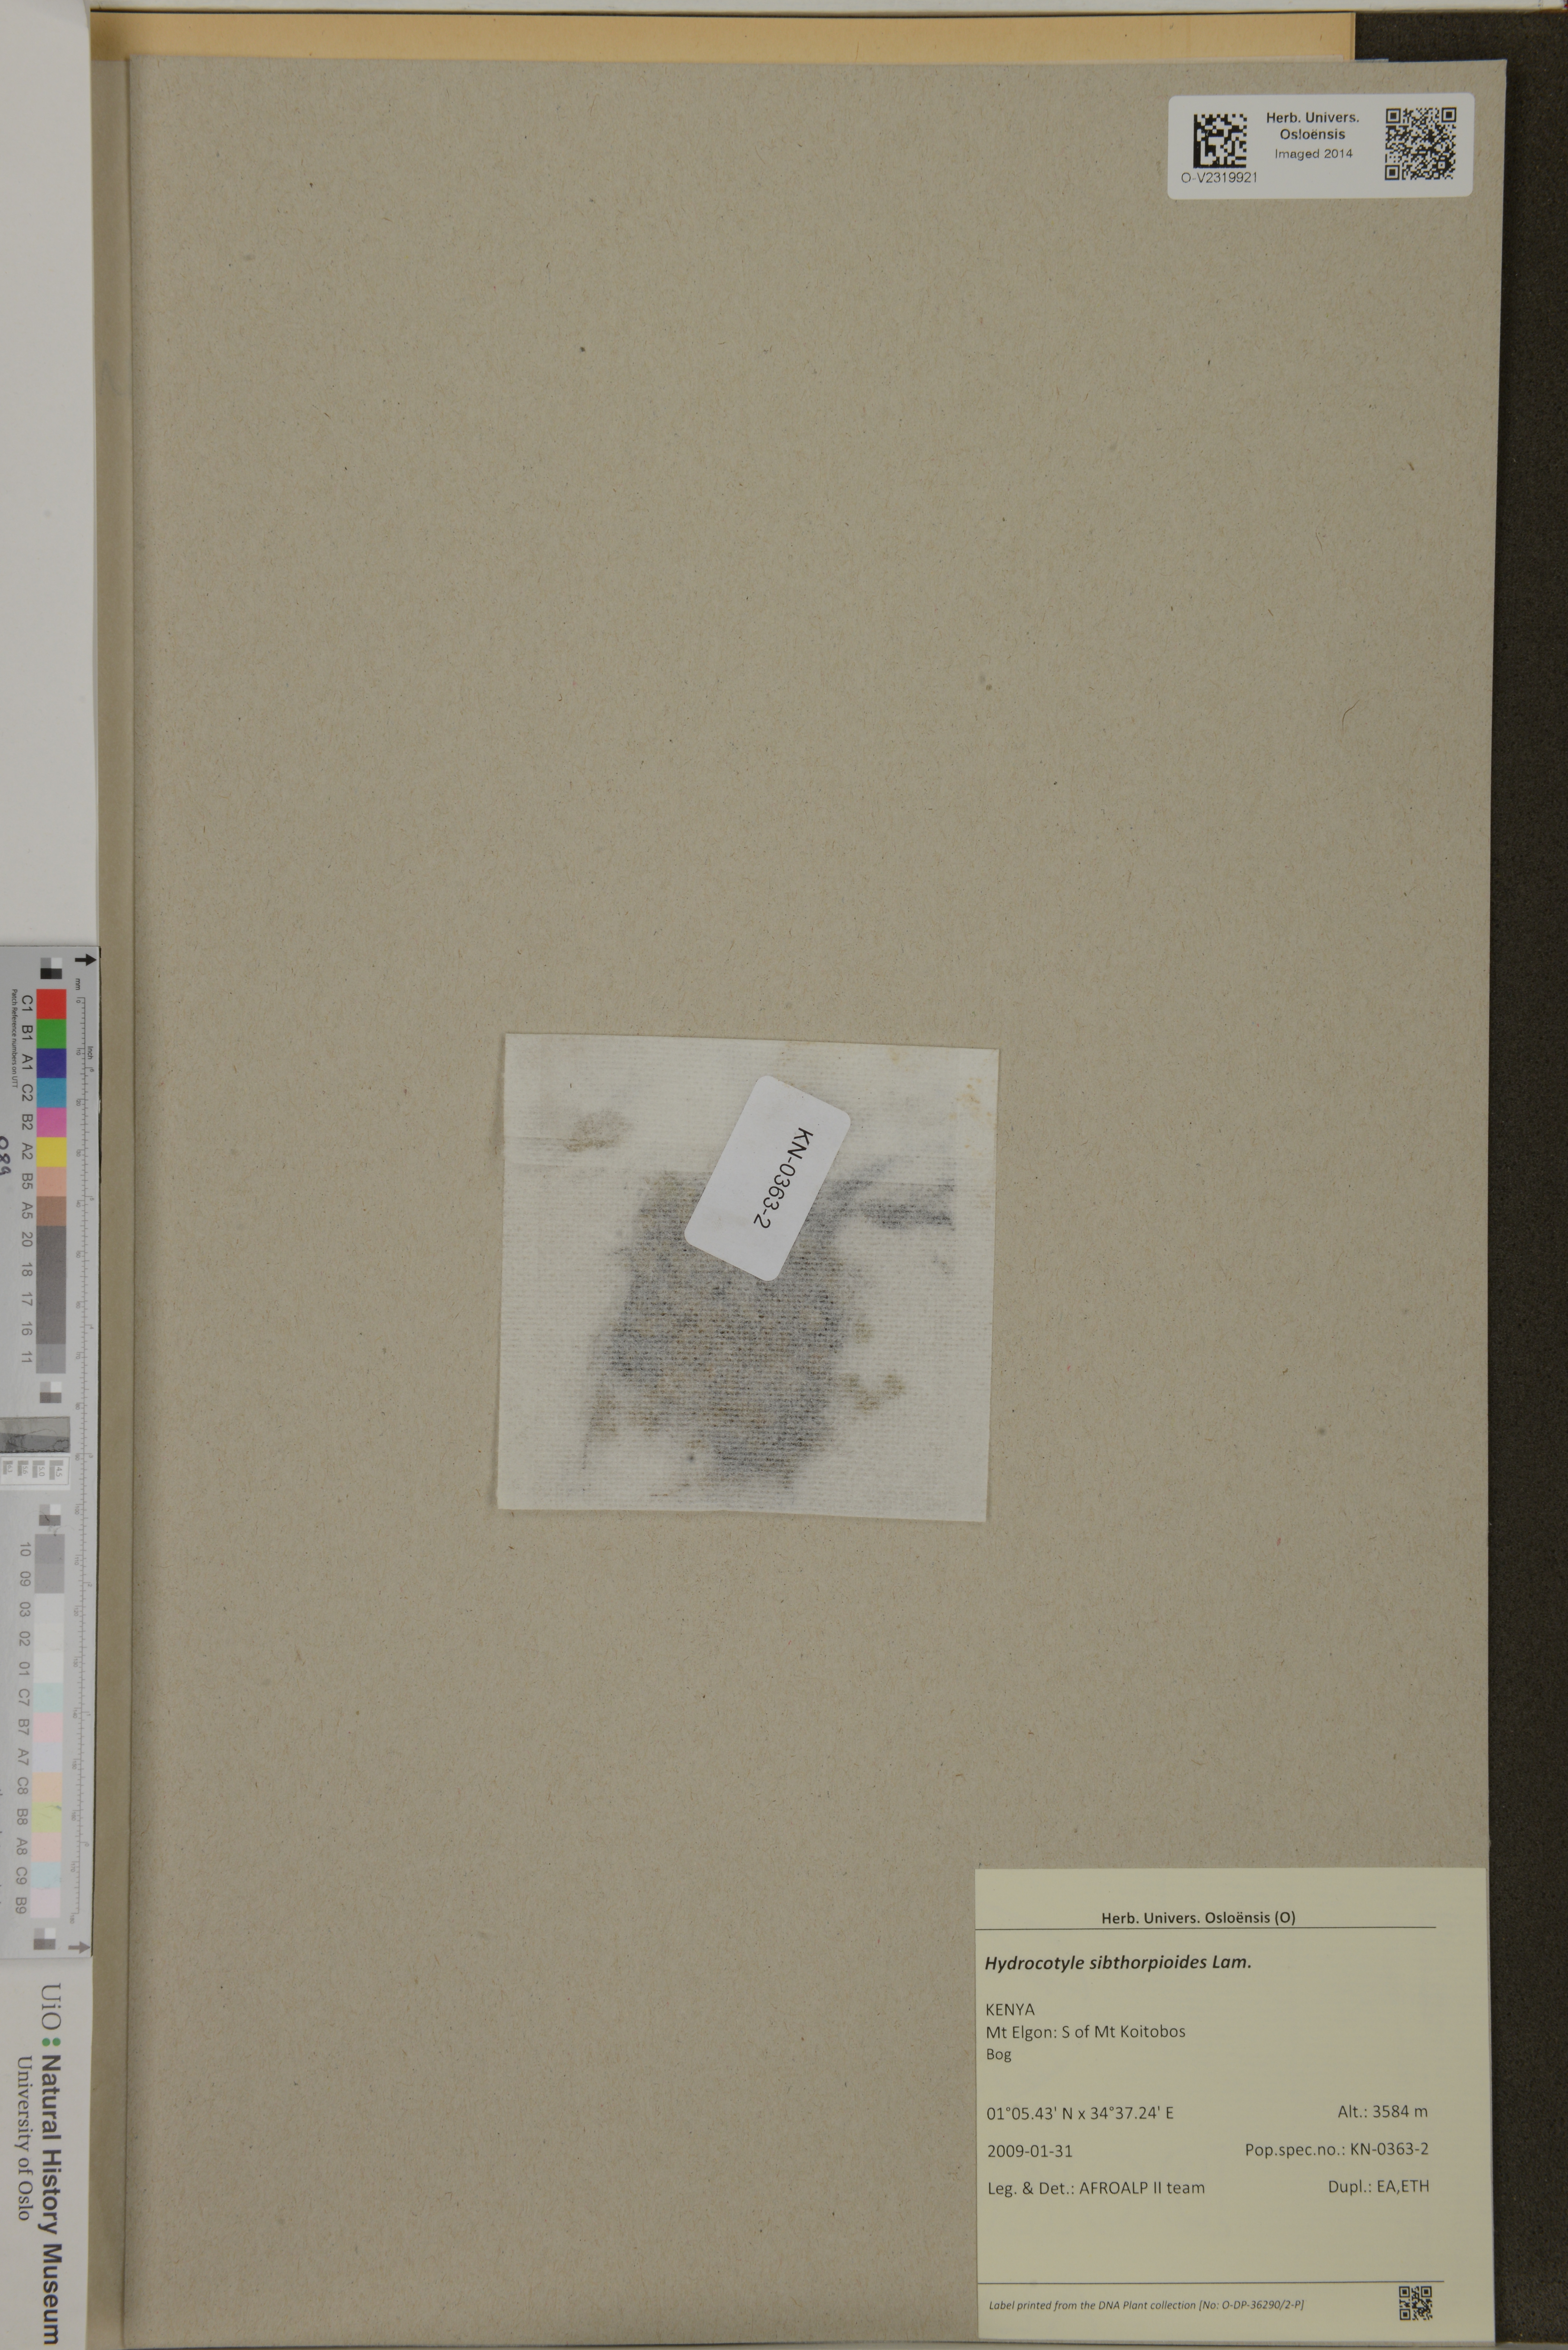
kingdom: Plantae
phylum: Tracheophyta
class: Magnoliopsida
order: Apiales
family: Araliaceae
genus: Hydrocotyle
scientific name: Hydrocotyle sibthorpioides
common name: Lawn marshpennywort
